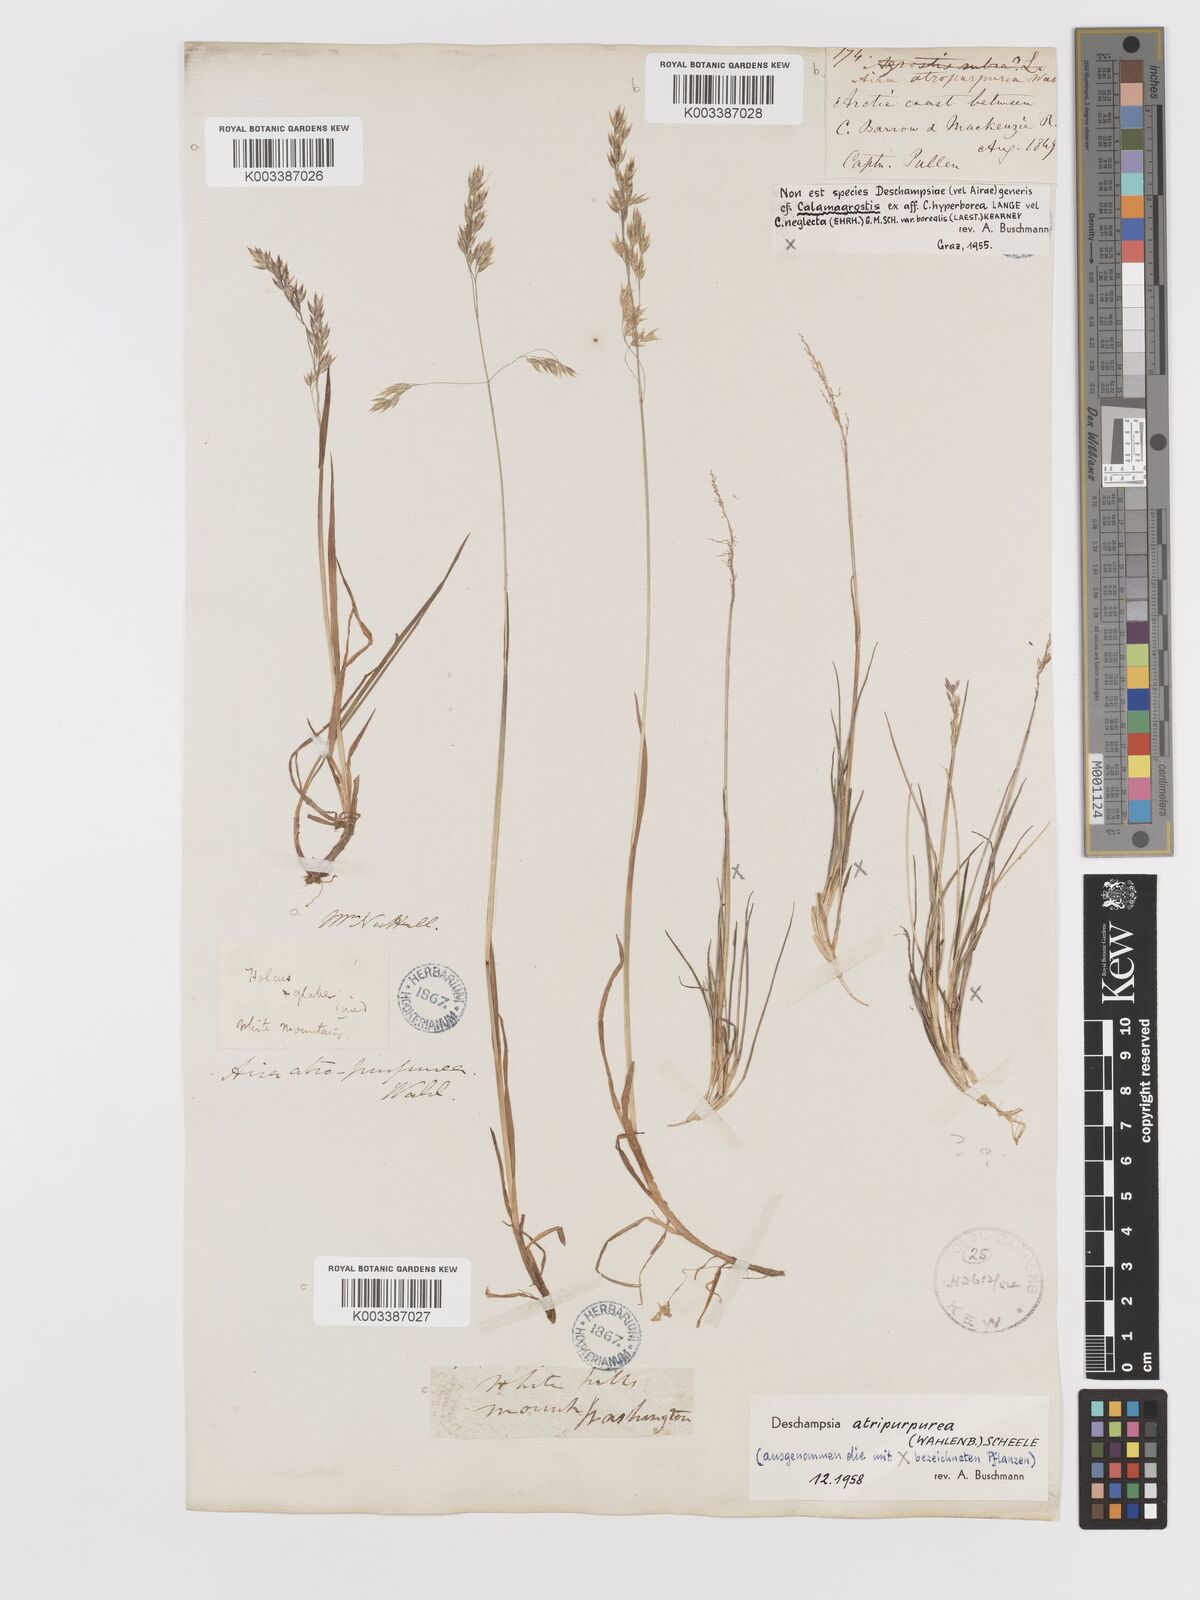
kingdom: Plantae
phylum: Tracheophyta
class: Liliopsida
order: Poales
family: Poaceae
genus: Vahlodea
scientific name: Vahlodea atropurpurea
